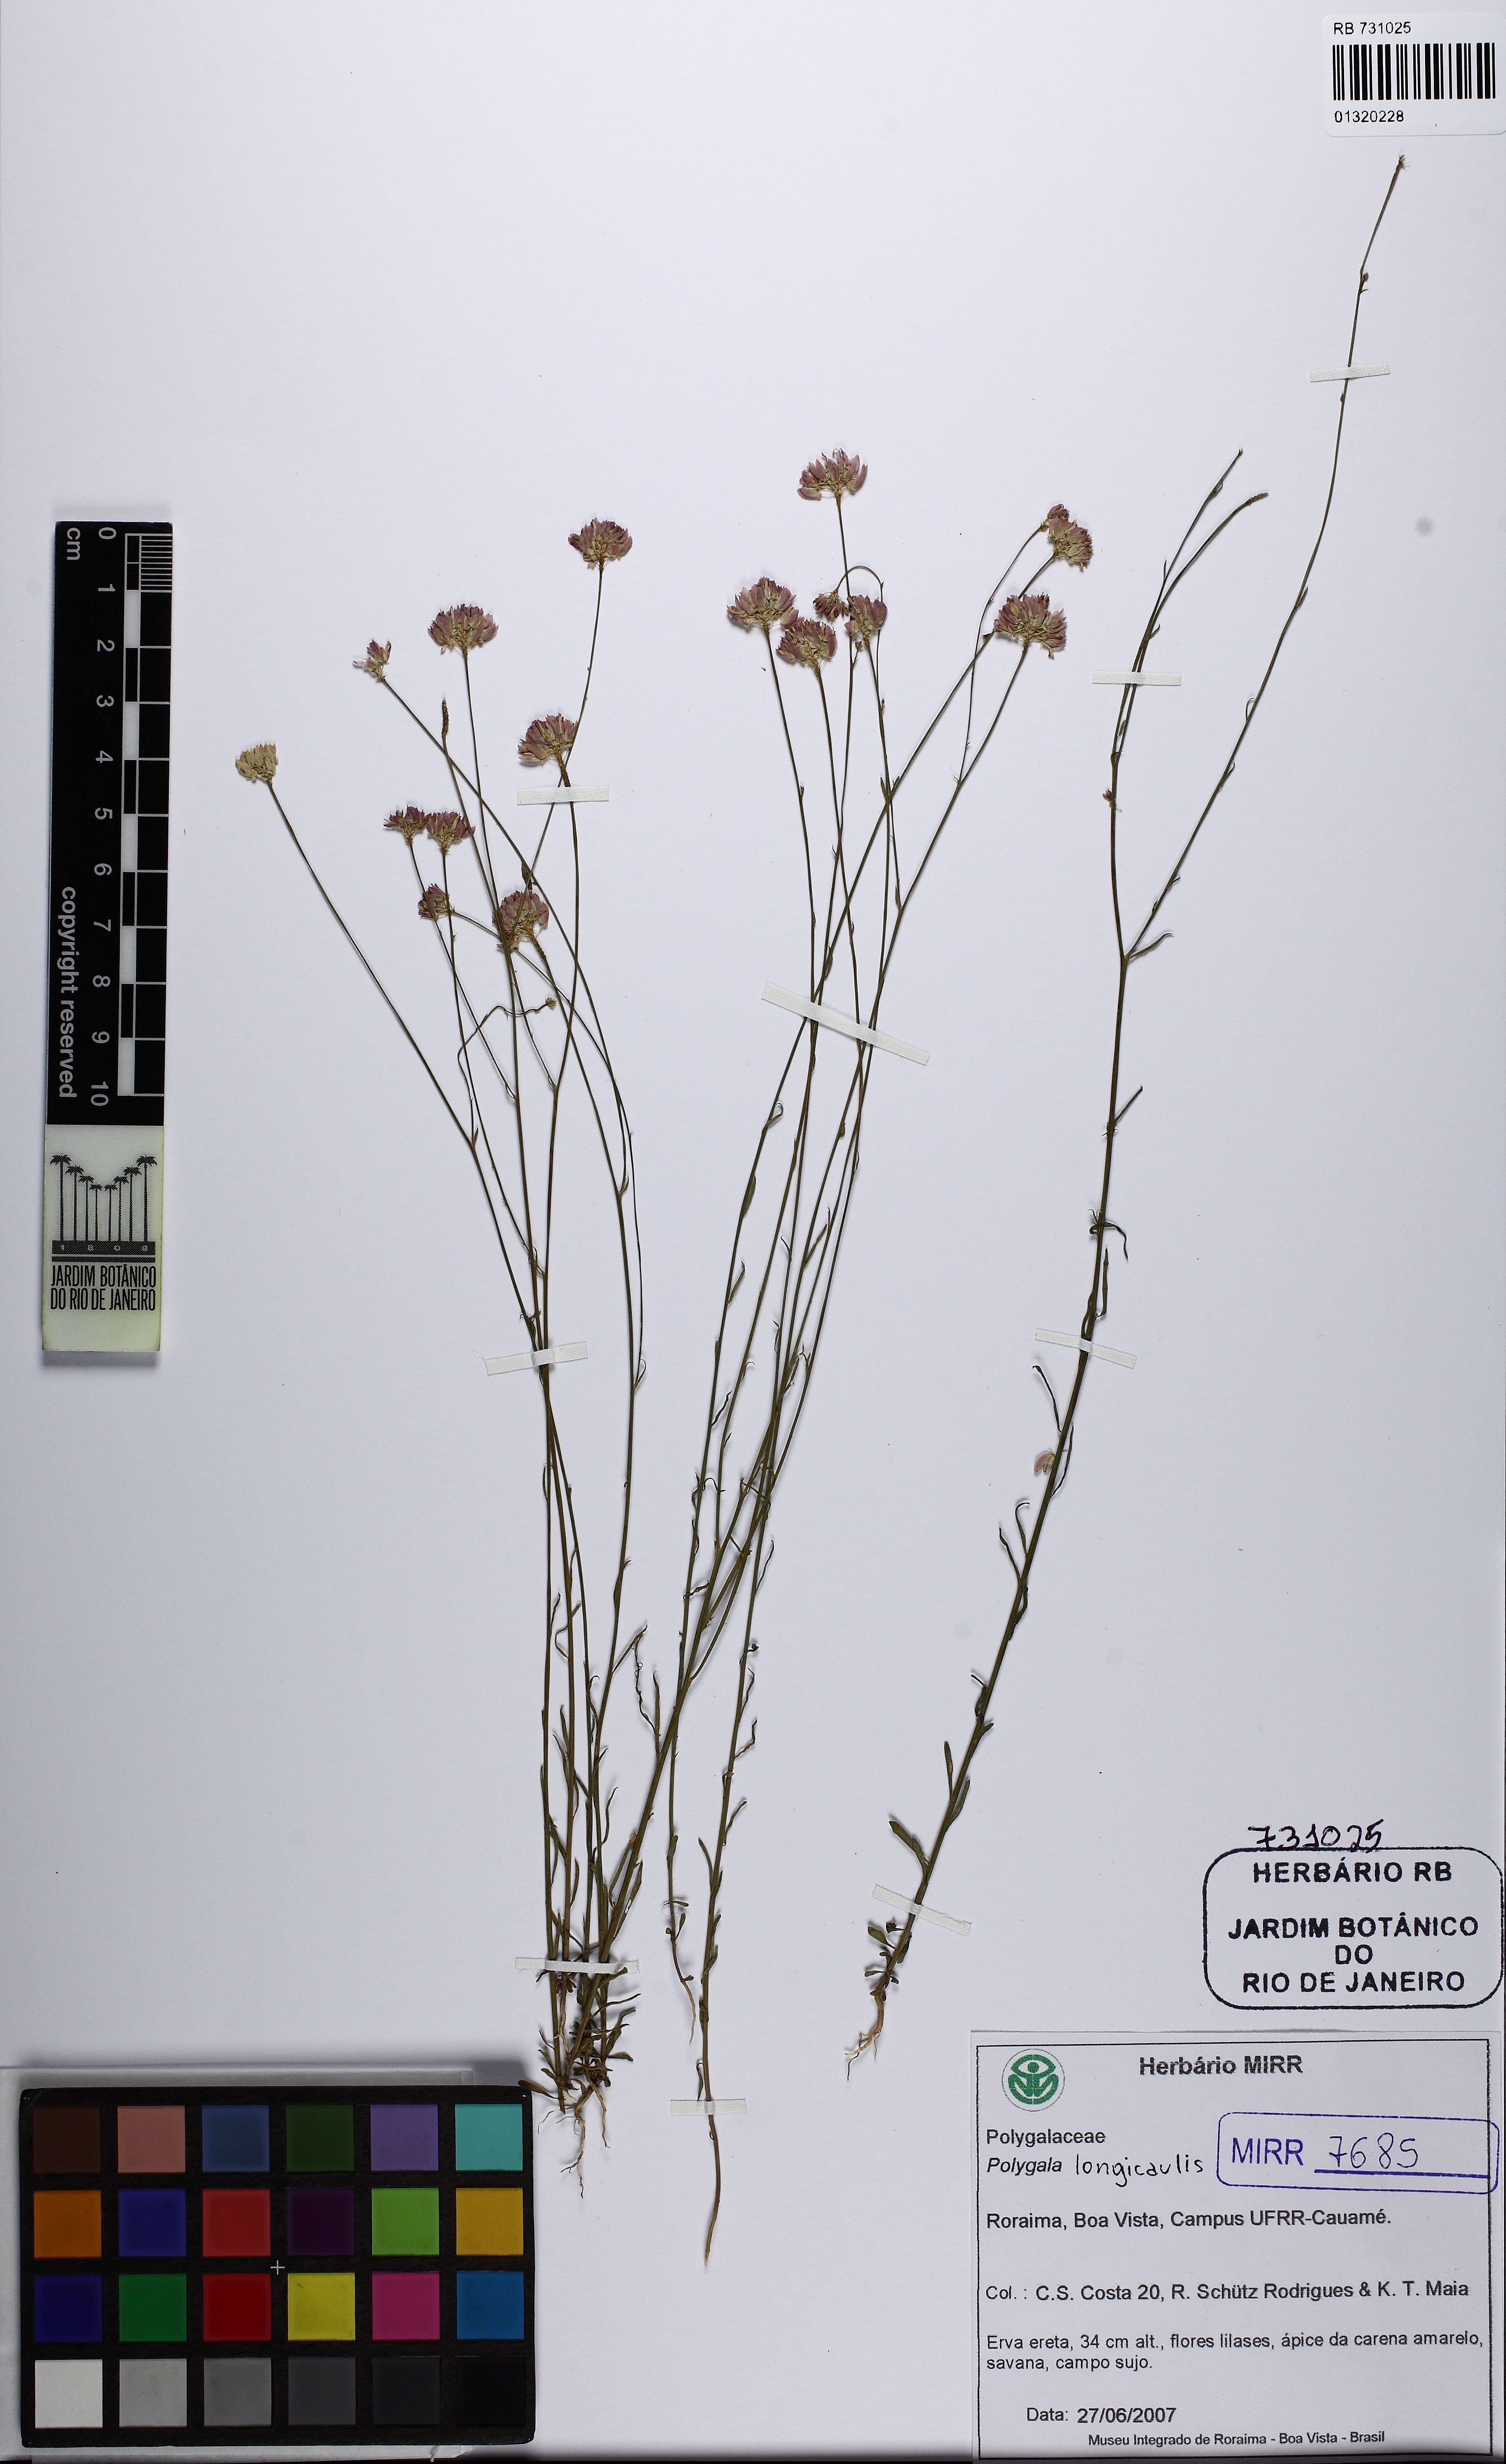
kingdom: Plantae
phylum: Tracheophyta
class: Magnoliopsida
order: Fabales
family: Polygalaceae
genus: Polygala
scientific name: Polygala longicaulis
